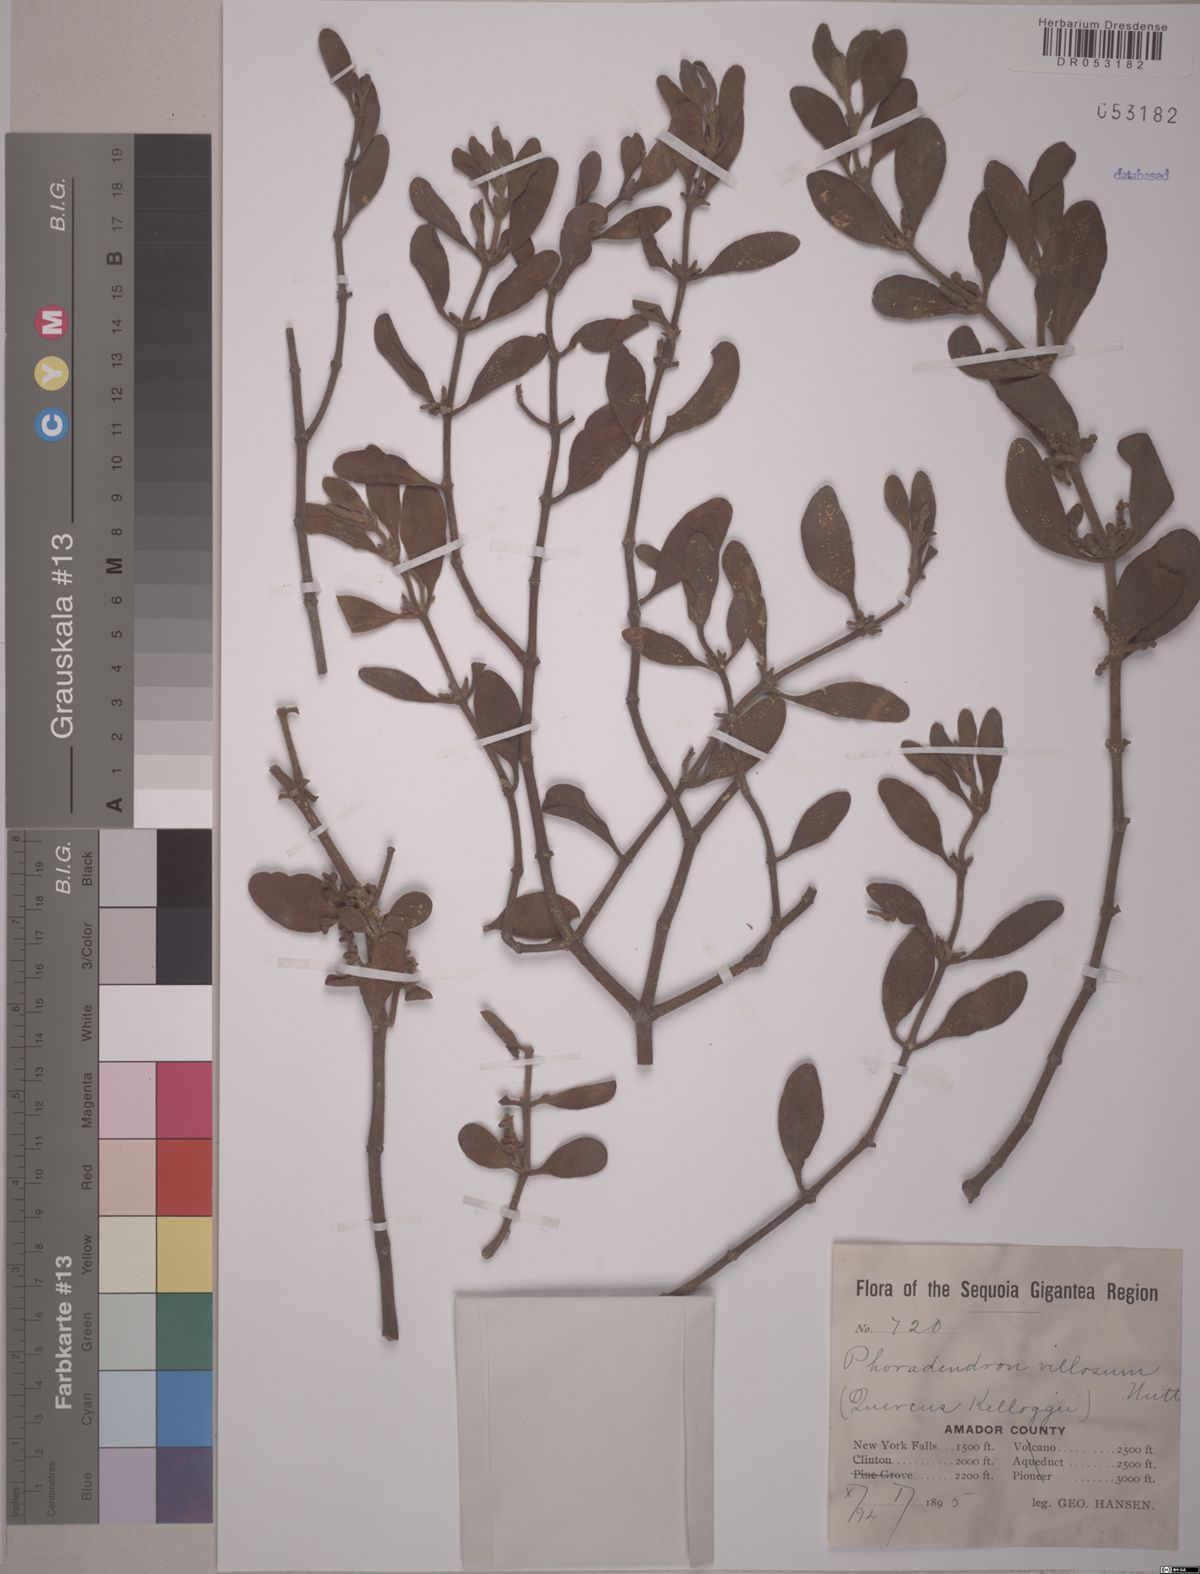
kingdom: Plantae
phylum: Tracheophyta
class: Magnoliopsida
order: Santalales
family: Viscaceae
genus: Phoradendron
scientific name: Phoradendron leucarpum
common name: Pacific mistletoe
